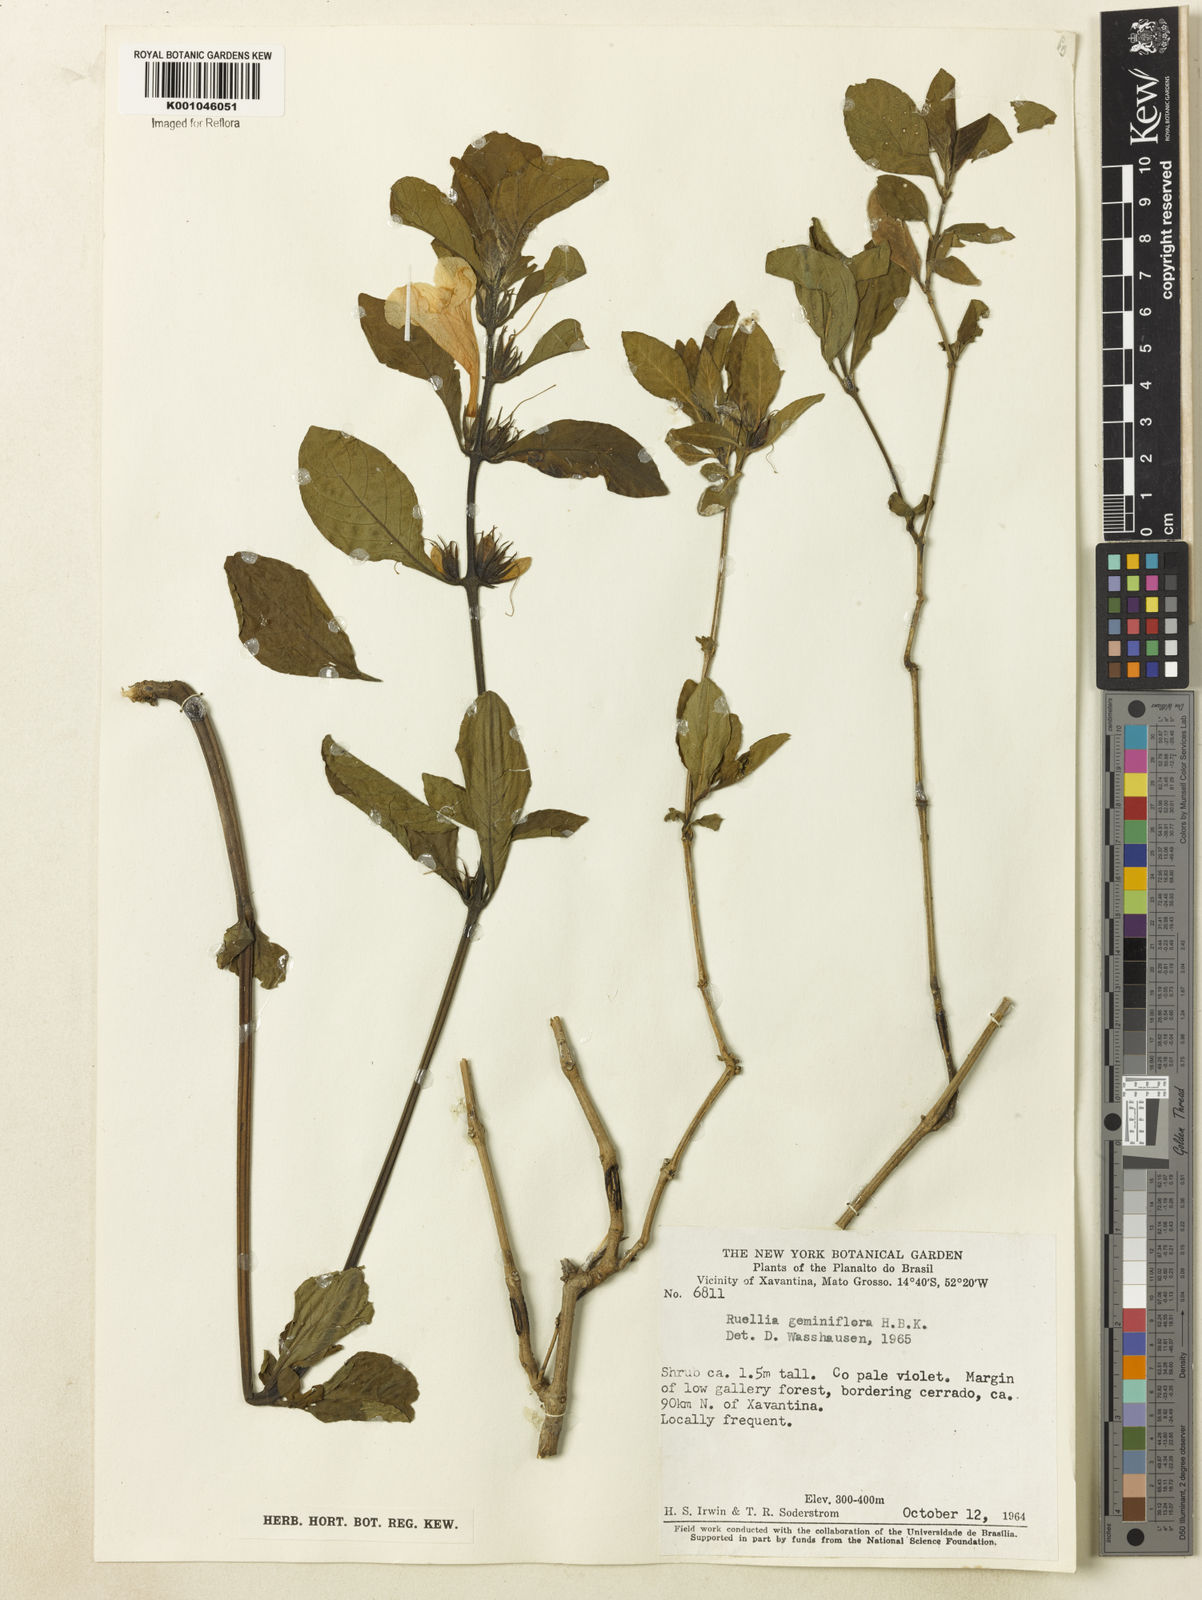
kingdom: Plantae
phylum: Tracheophyta
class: Magnoliopsida
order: Lamiales
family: Acanthaceae
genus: Ruellia
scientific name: Ruellia geminiflora
